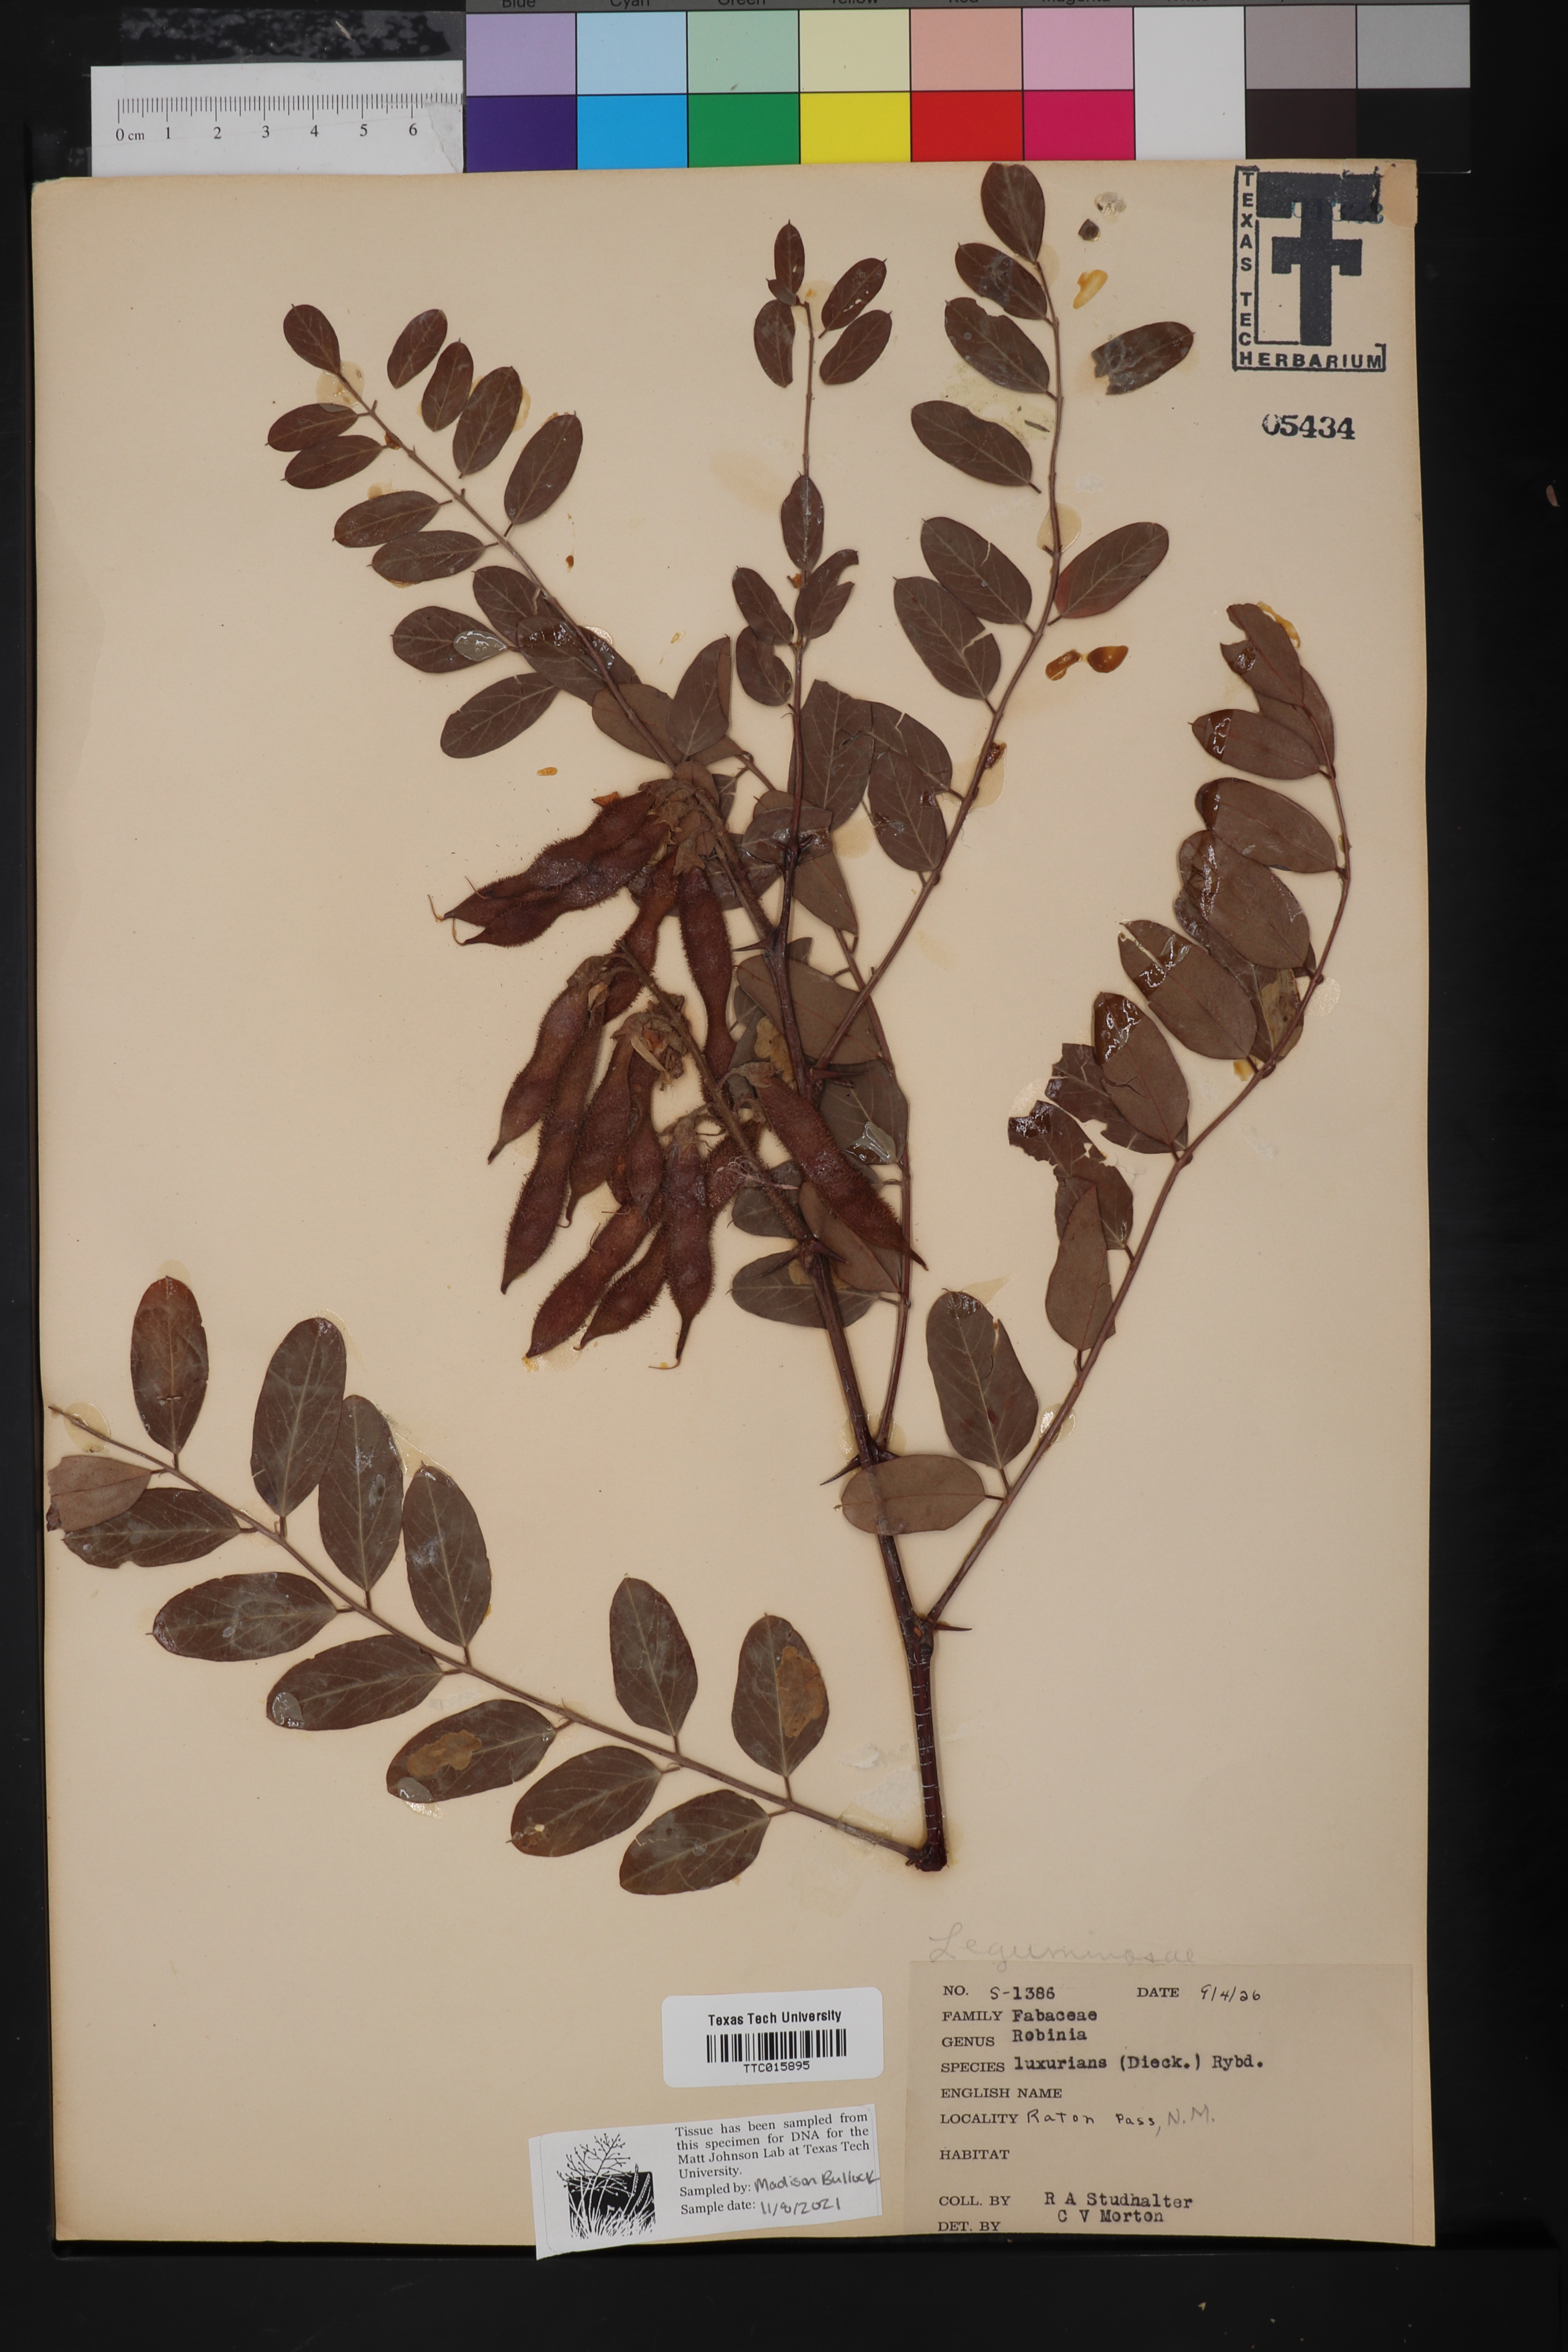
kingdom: Plantae
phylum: Tracheophyta
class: Magnoliopsida
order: Fabales
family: Fabaceae
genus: Rhynchosia
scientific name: Rhynchosia senna
